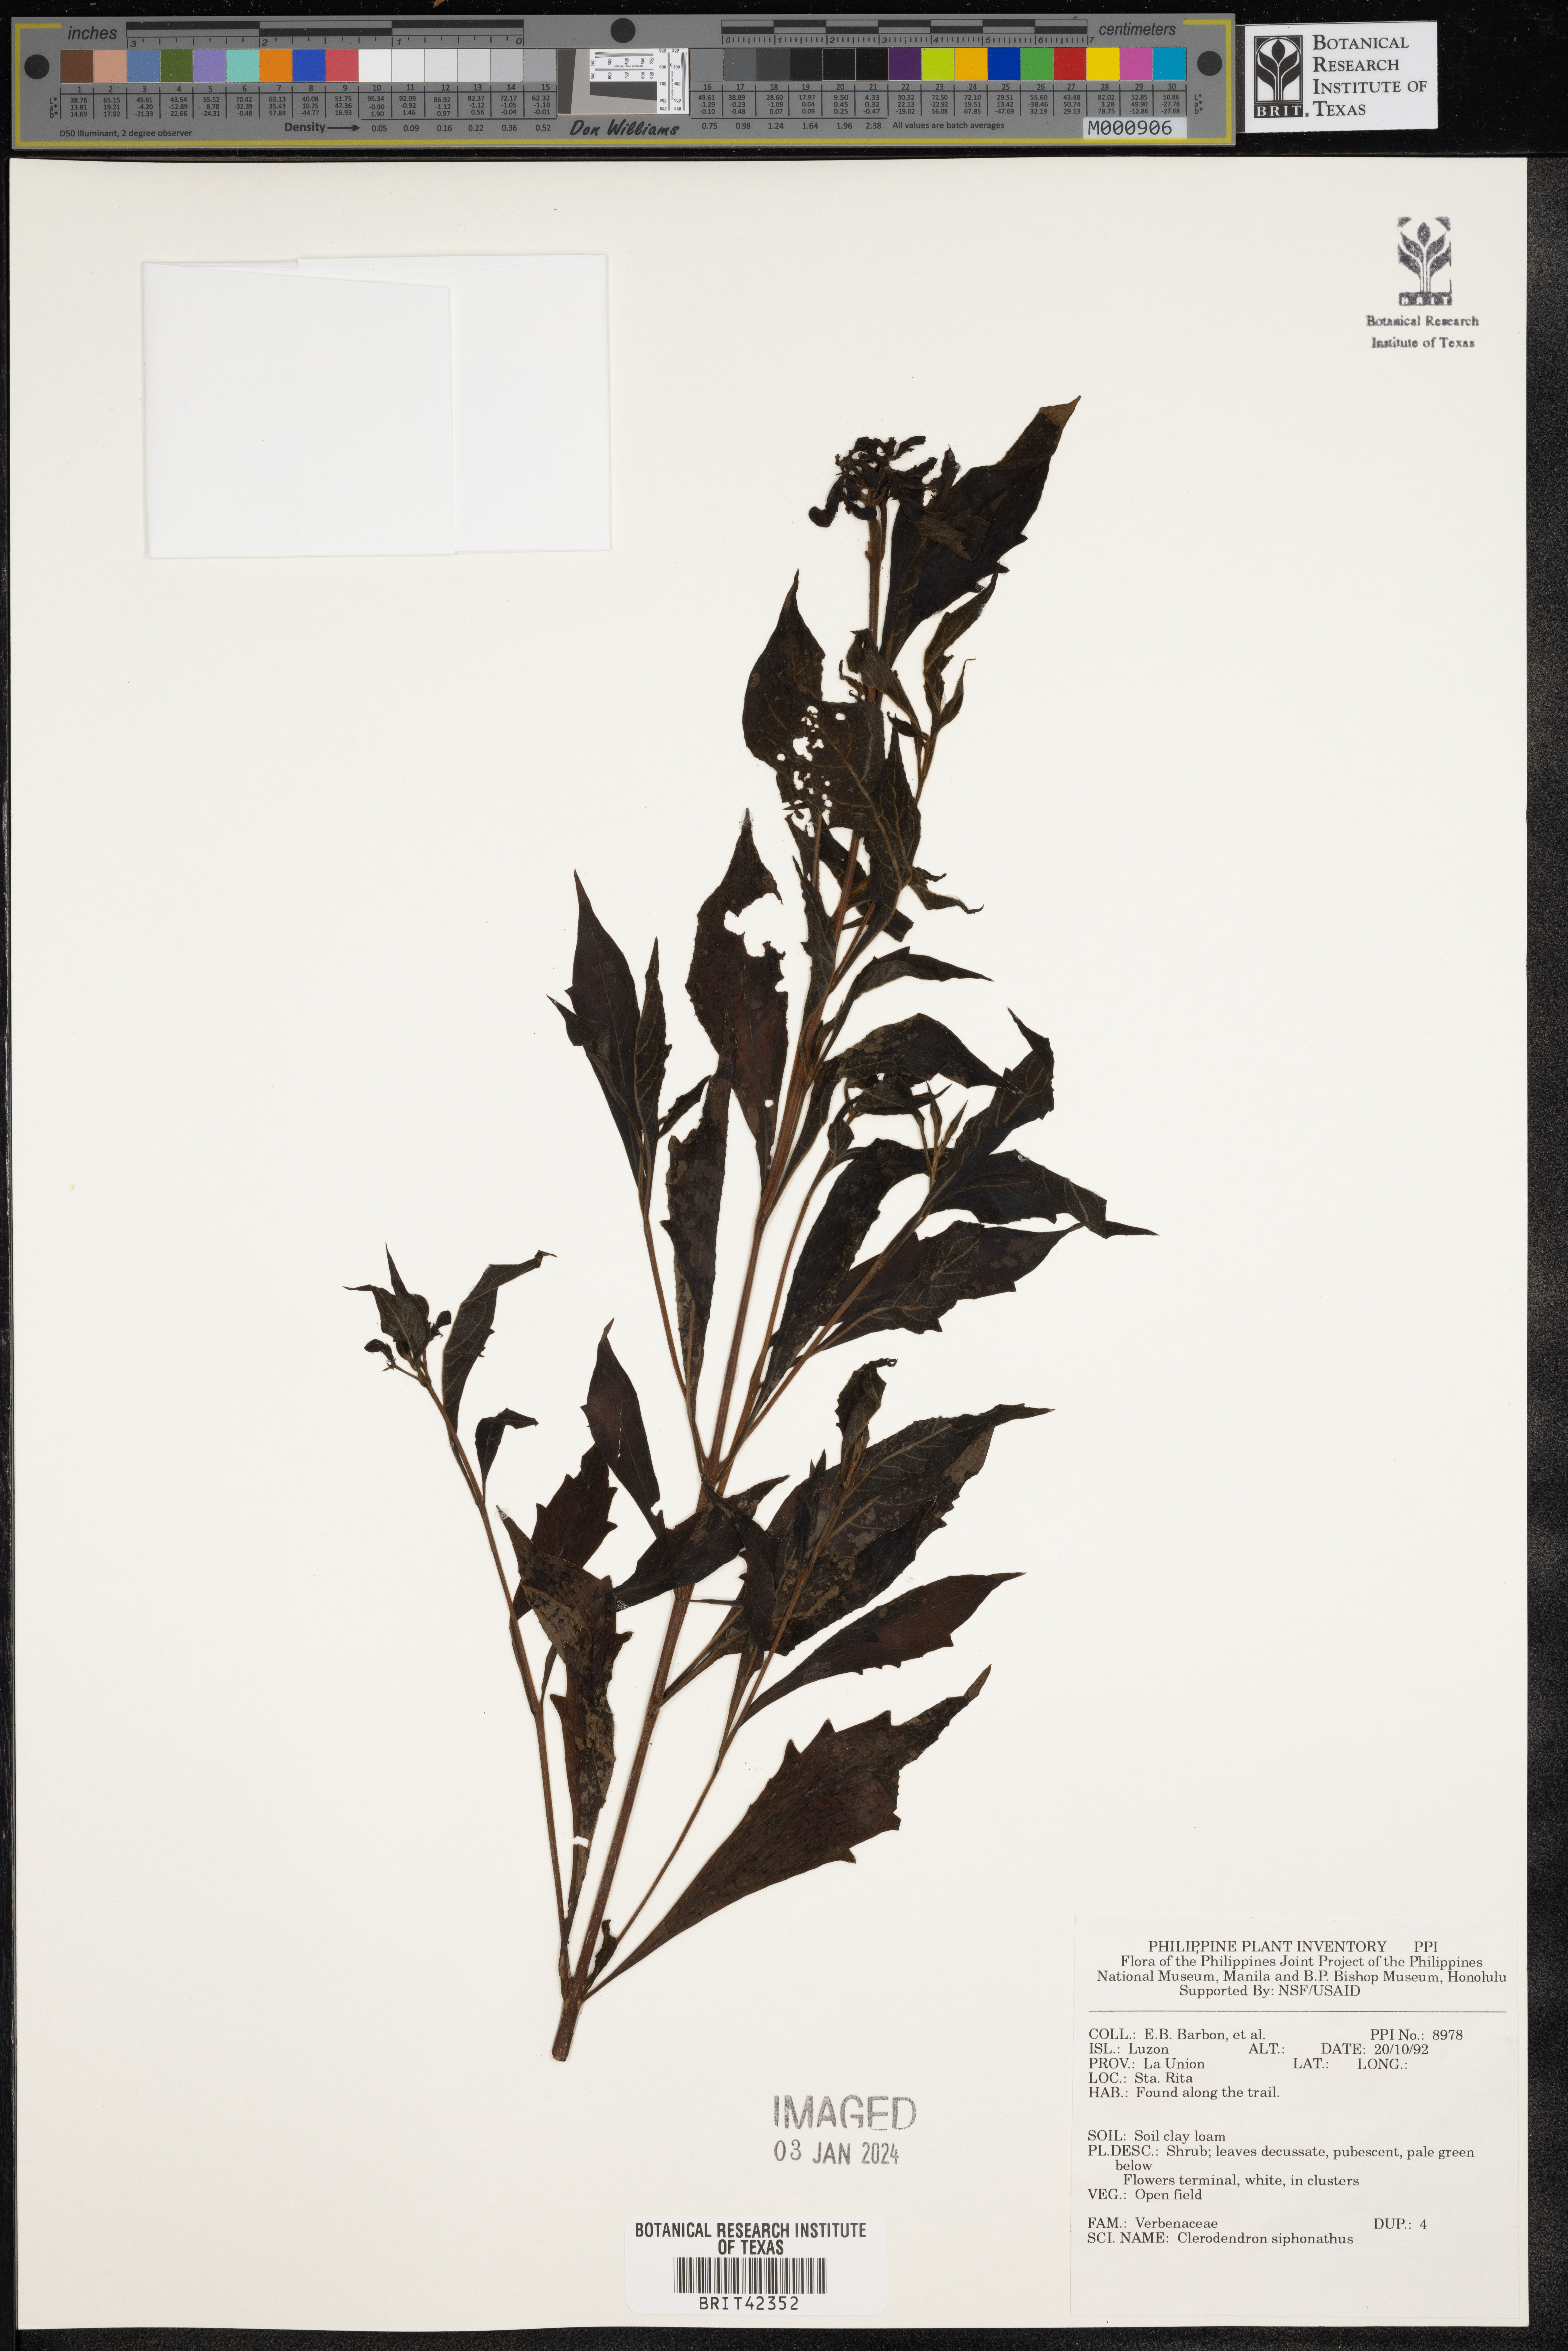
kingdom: Plantae
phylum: Tracheophyta
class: Magnoliopsida
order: Lamiales
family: Lamiaceae
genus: Clerodendrum
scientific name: Clerodendrum indicum
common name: Turk's turbin
